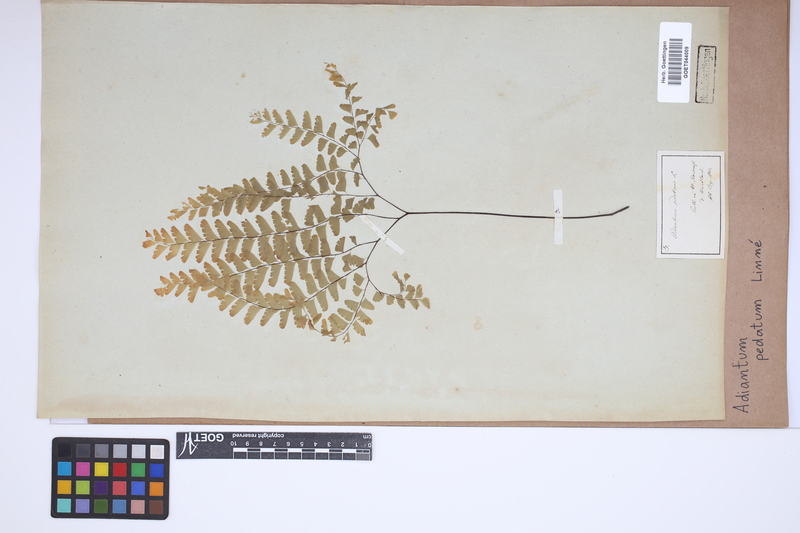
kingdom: Plantae
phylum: Tracheophyta
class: Polypodiopsida
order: Polypodiales
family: Pteridaceae
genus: Adiantum
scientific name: Adiantum pedatum
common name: Five-finger fern
